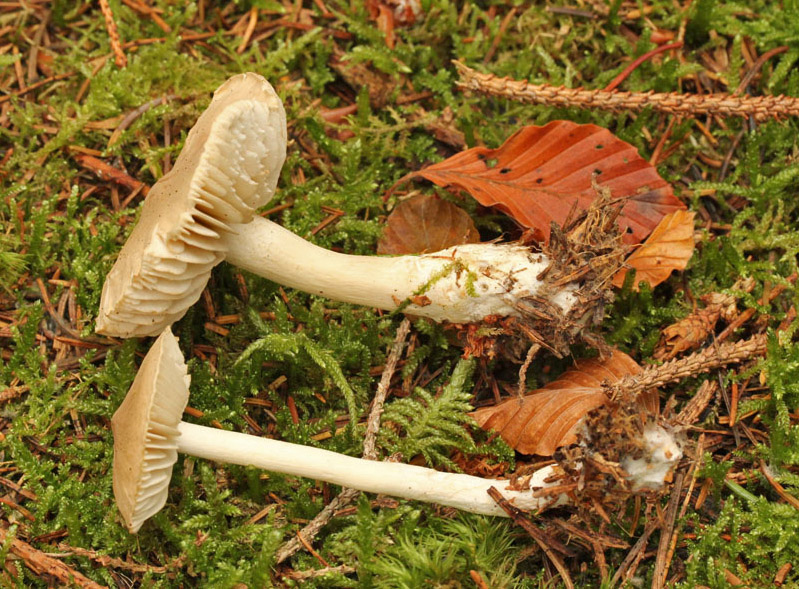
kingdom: Fungi
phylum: Basidiomycota
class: Agaricomycetes
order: Agaricales
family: Tricholomataceae
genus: Tricholoma
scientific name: Tricholoma inamoenum
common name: højstokket ridderhat
